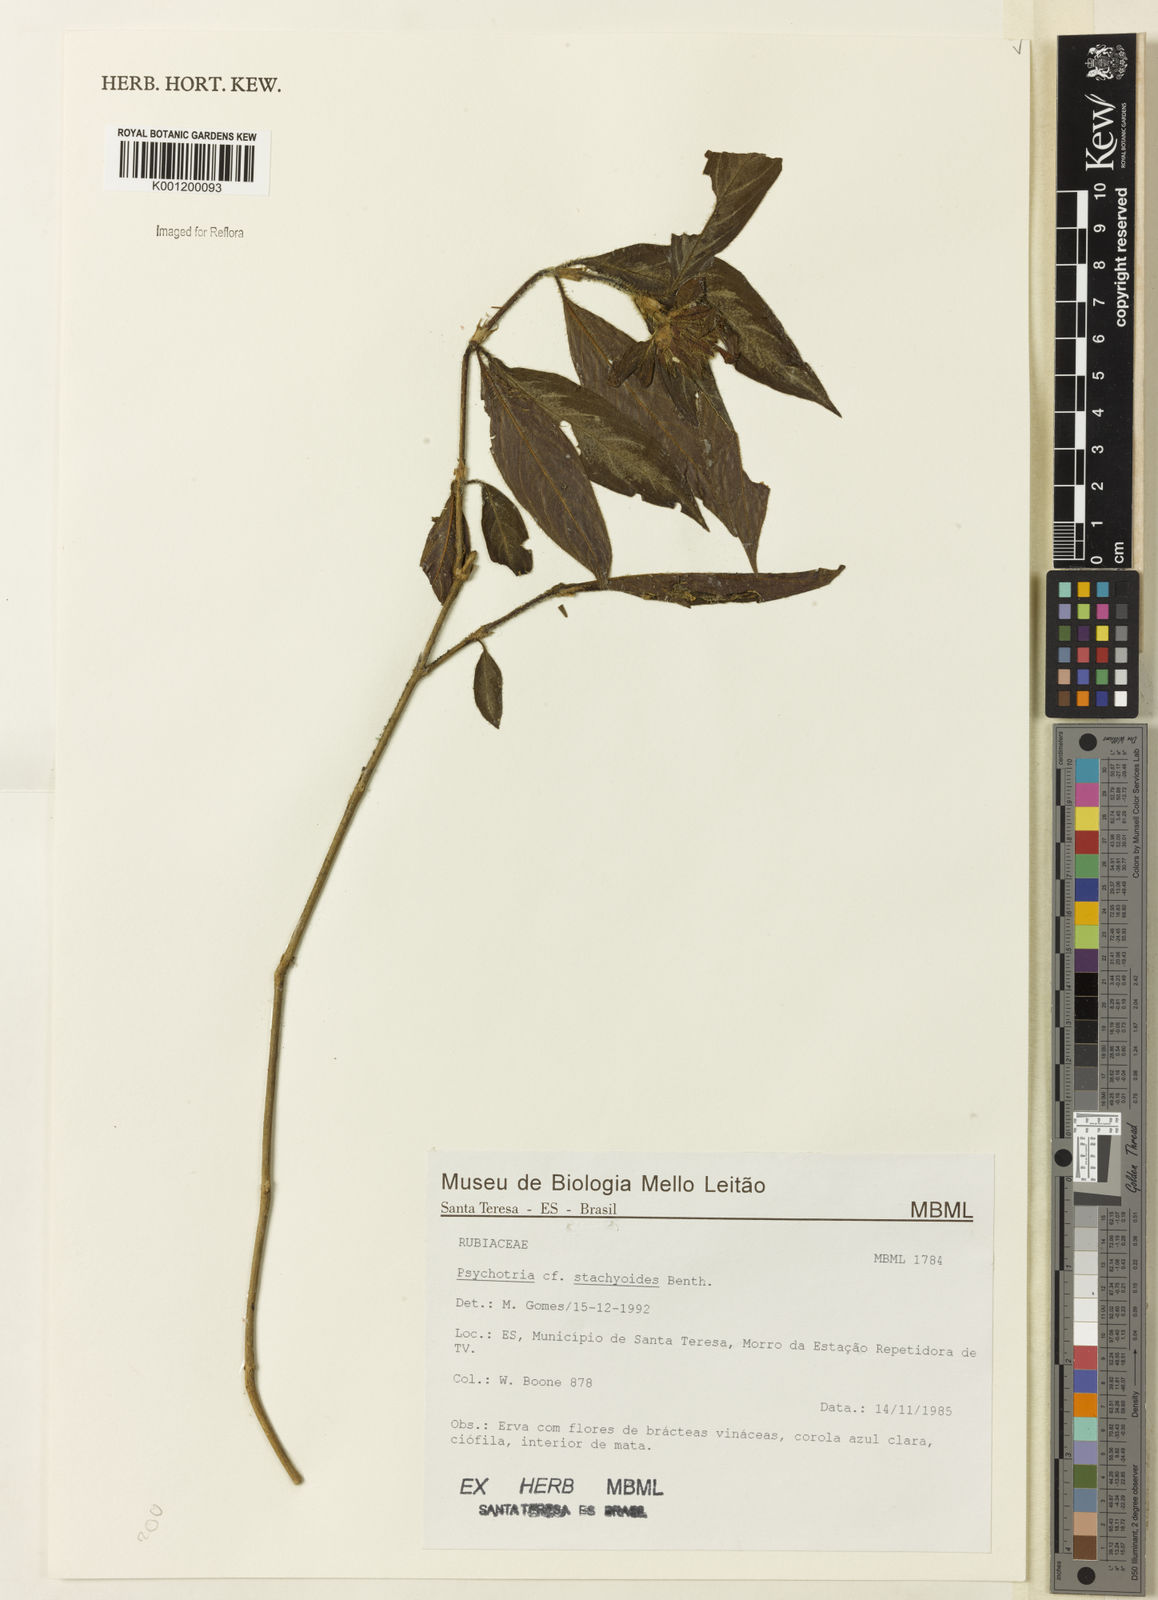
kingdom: Plantae
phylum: Tracheophyta
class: Magnoliopsida
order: Gentianales
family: Rubiaceae
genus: Psychotria
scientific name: Psychotria stachyoides
